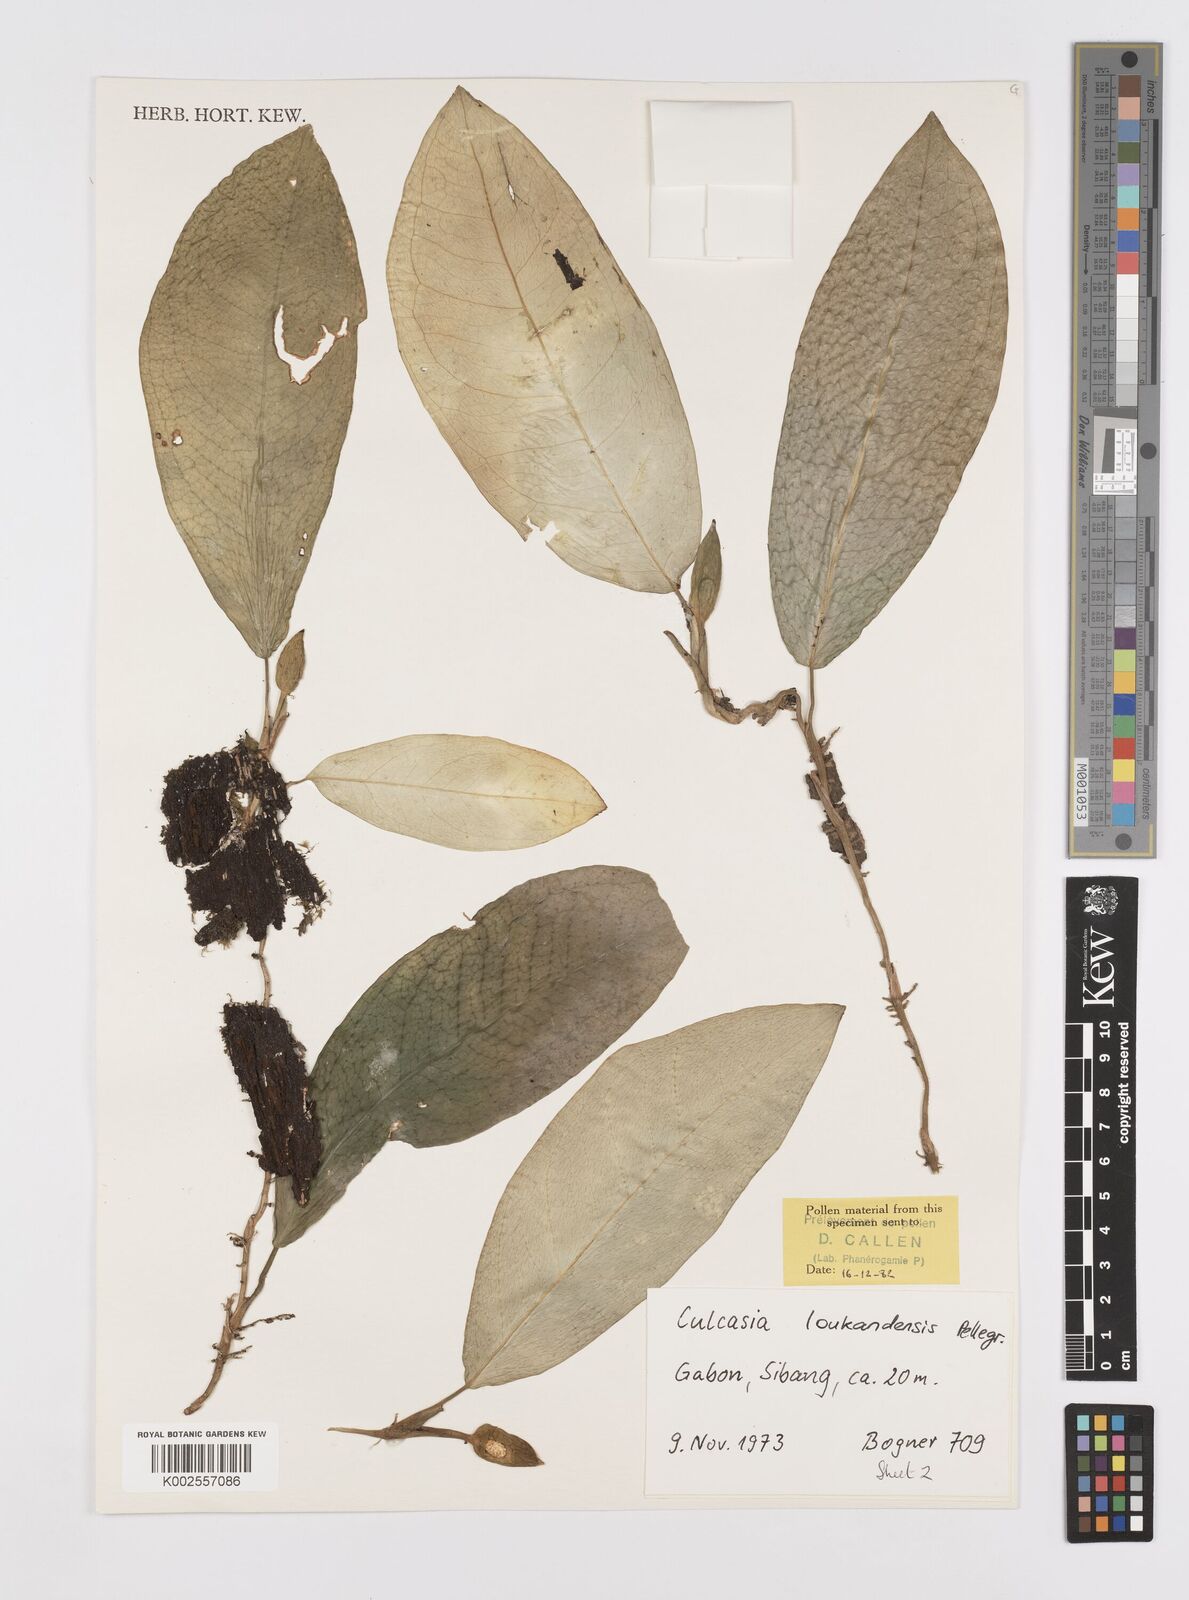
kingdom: Plantae
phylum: Tracheophyta
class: Liliopsida
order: Alismatales
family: Araceae
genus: Culcasia
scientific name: Culcasia loukandensis
